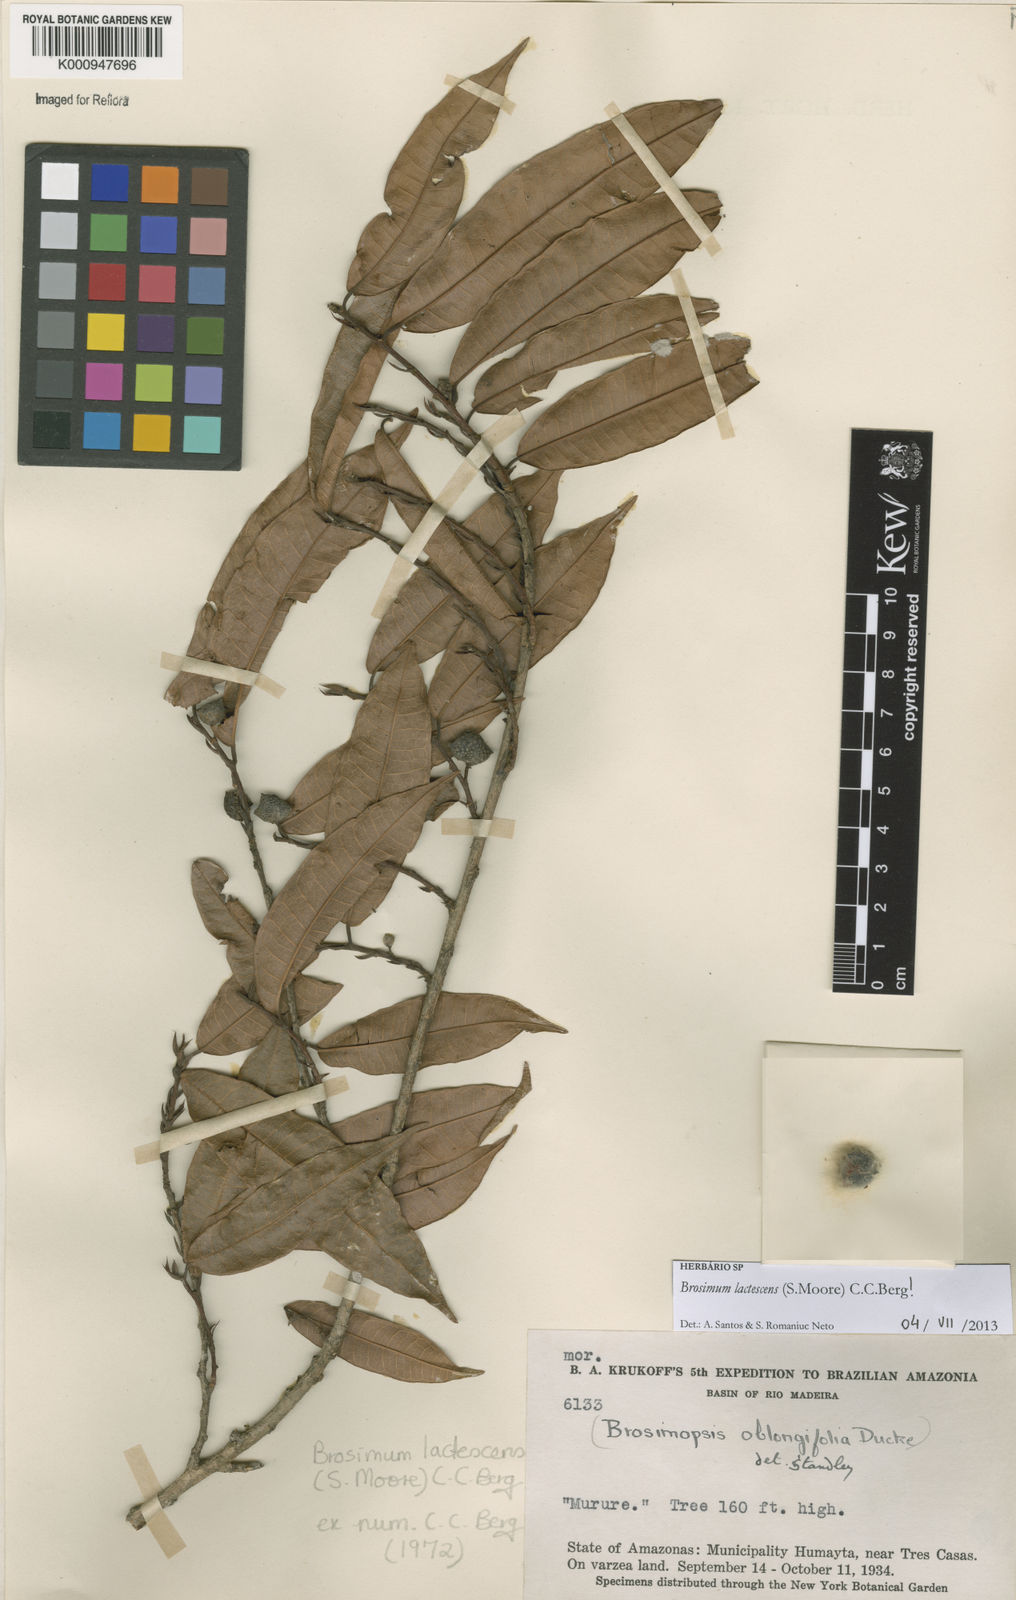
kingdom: Plantae
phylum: Tracheophyta
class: Magnoliopsida
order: Rosales
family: Moraceae
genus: Brosimum
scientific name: Brosimum lactescens
